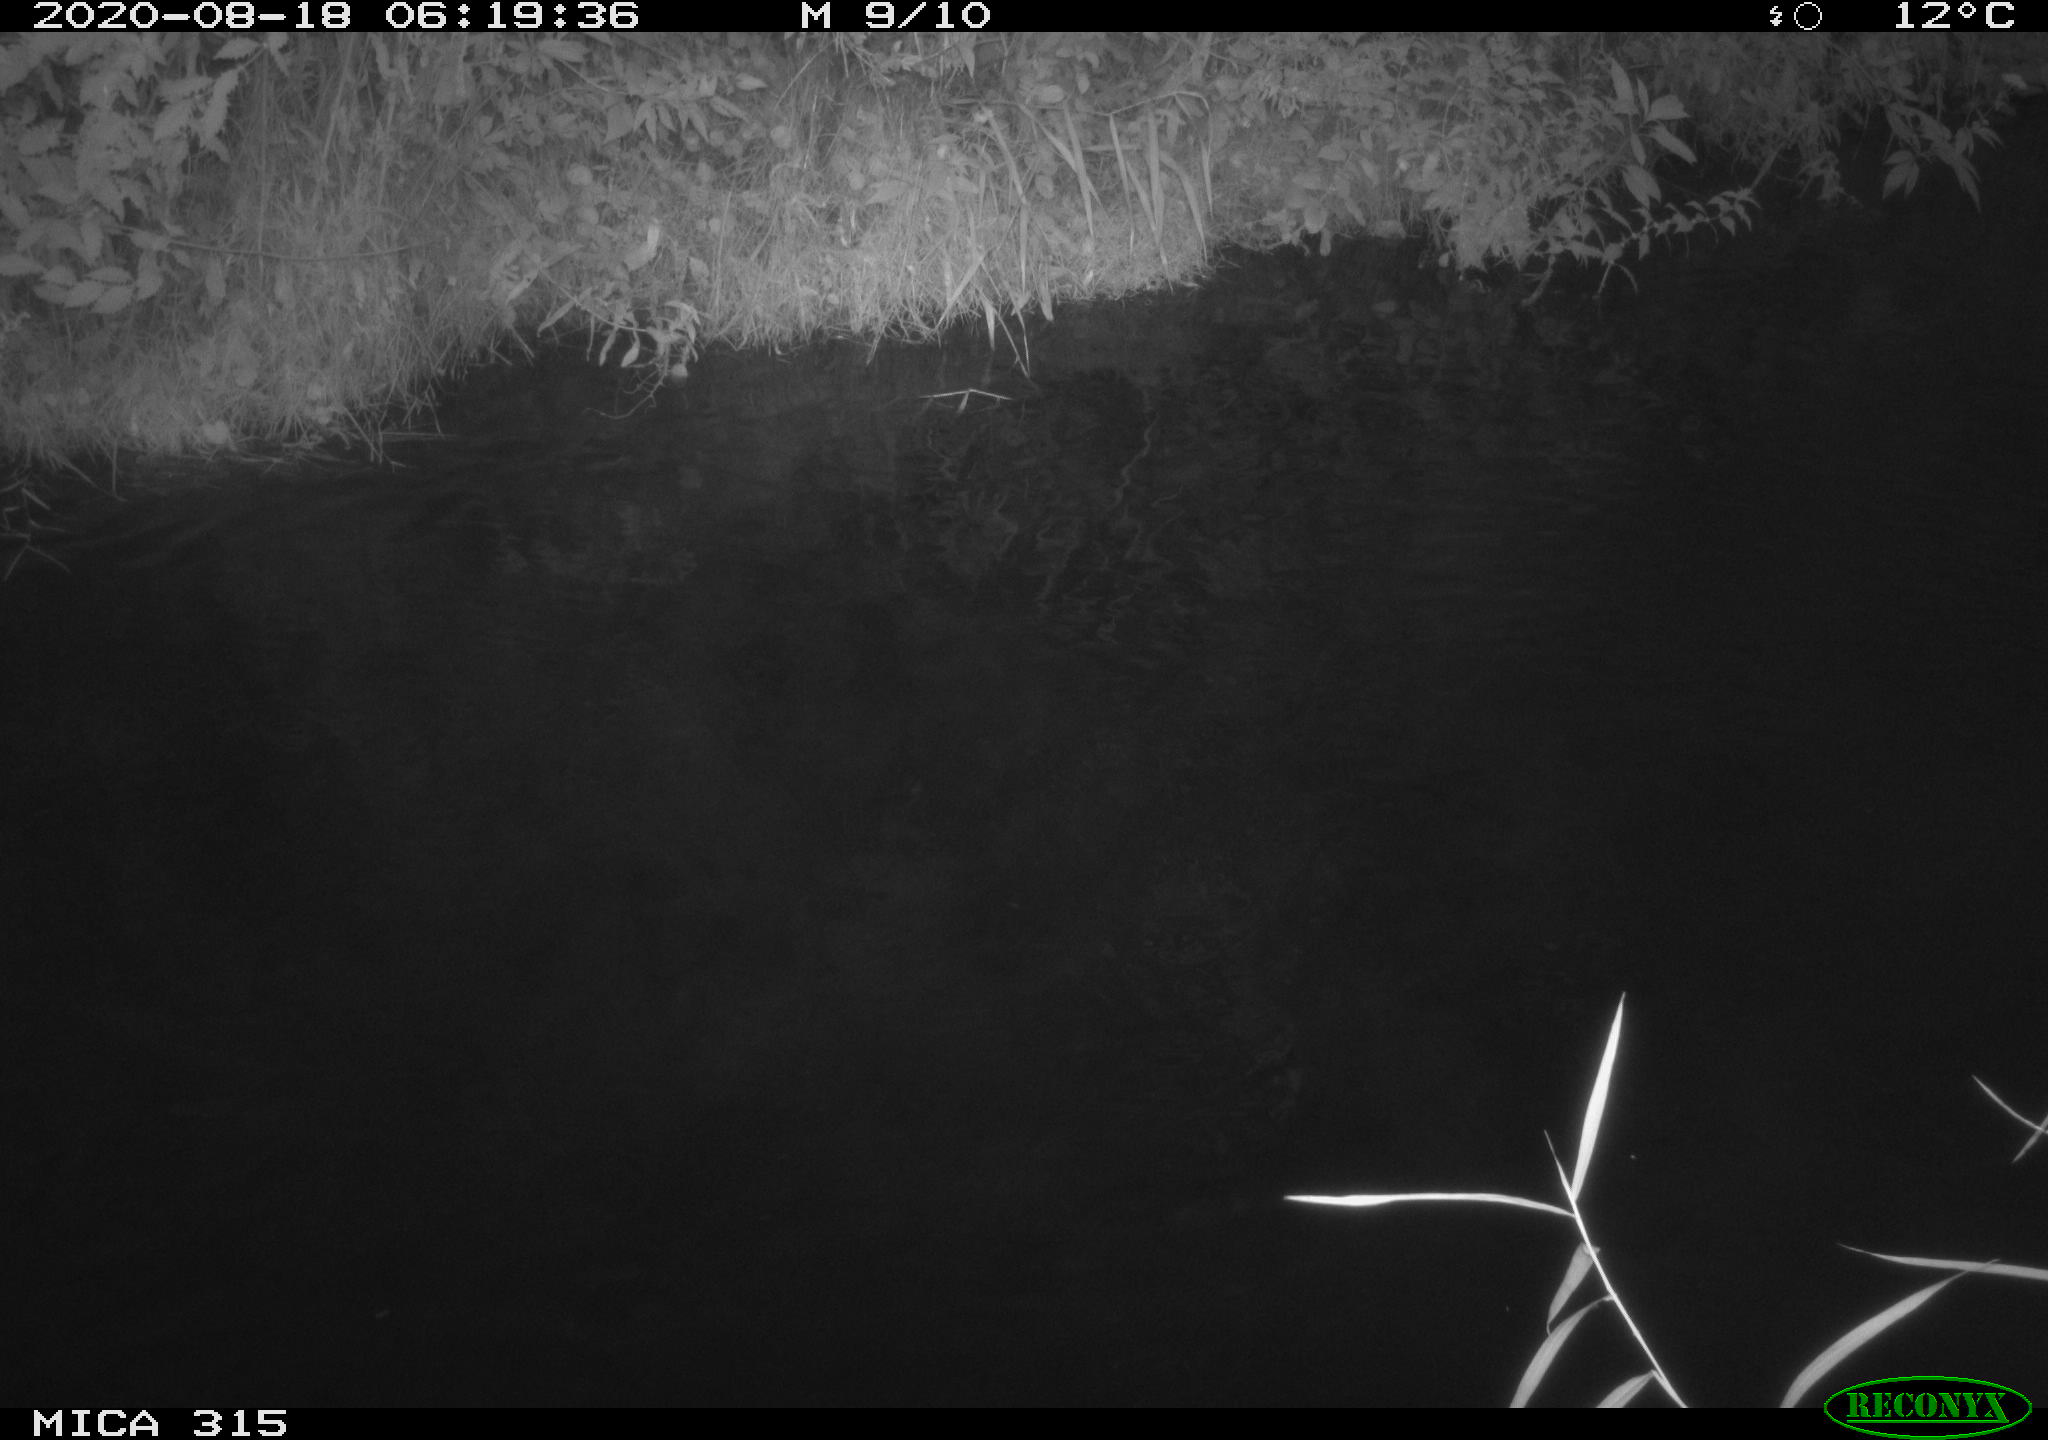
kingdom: Animalia
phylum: Chordata
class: Aves
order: Anseriformes
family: Anatidae
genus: Anas
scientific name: Anas platyrhynchos
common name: Mallard
